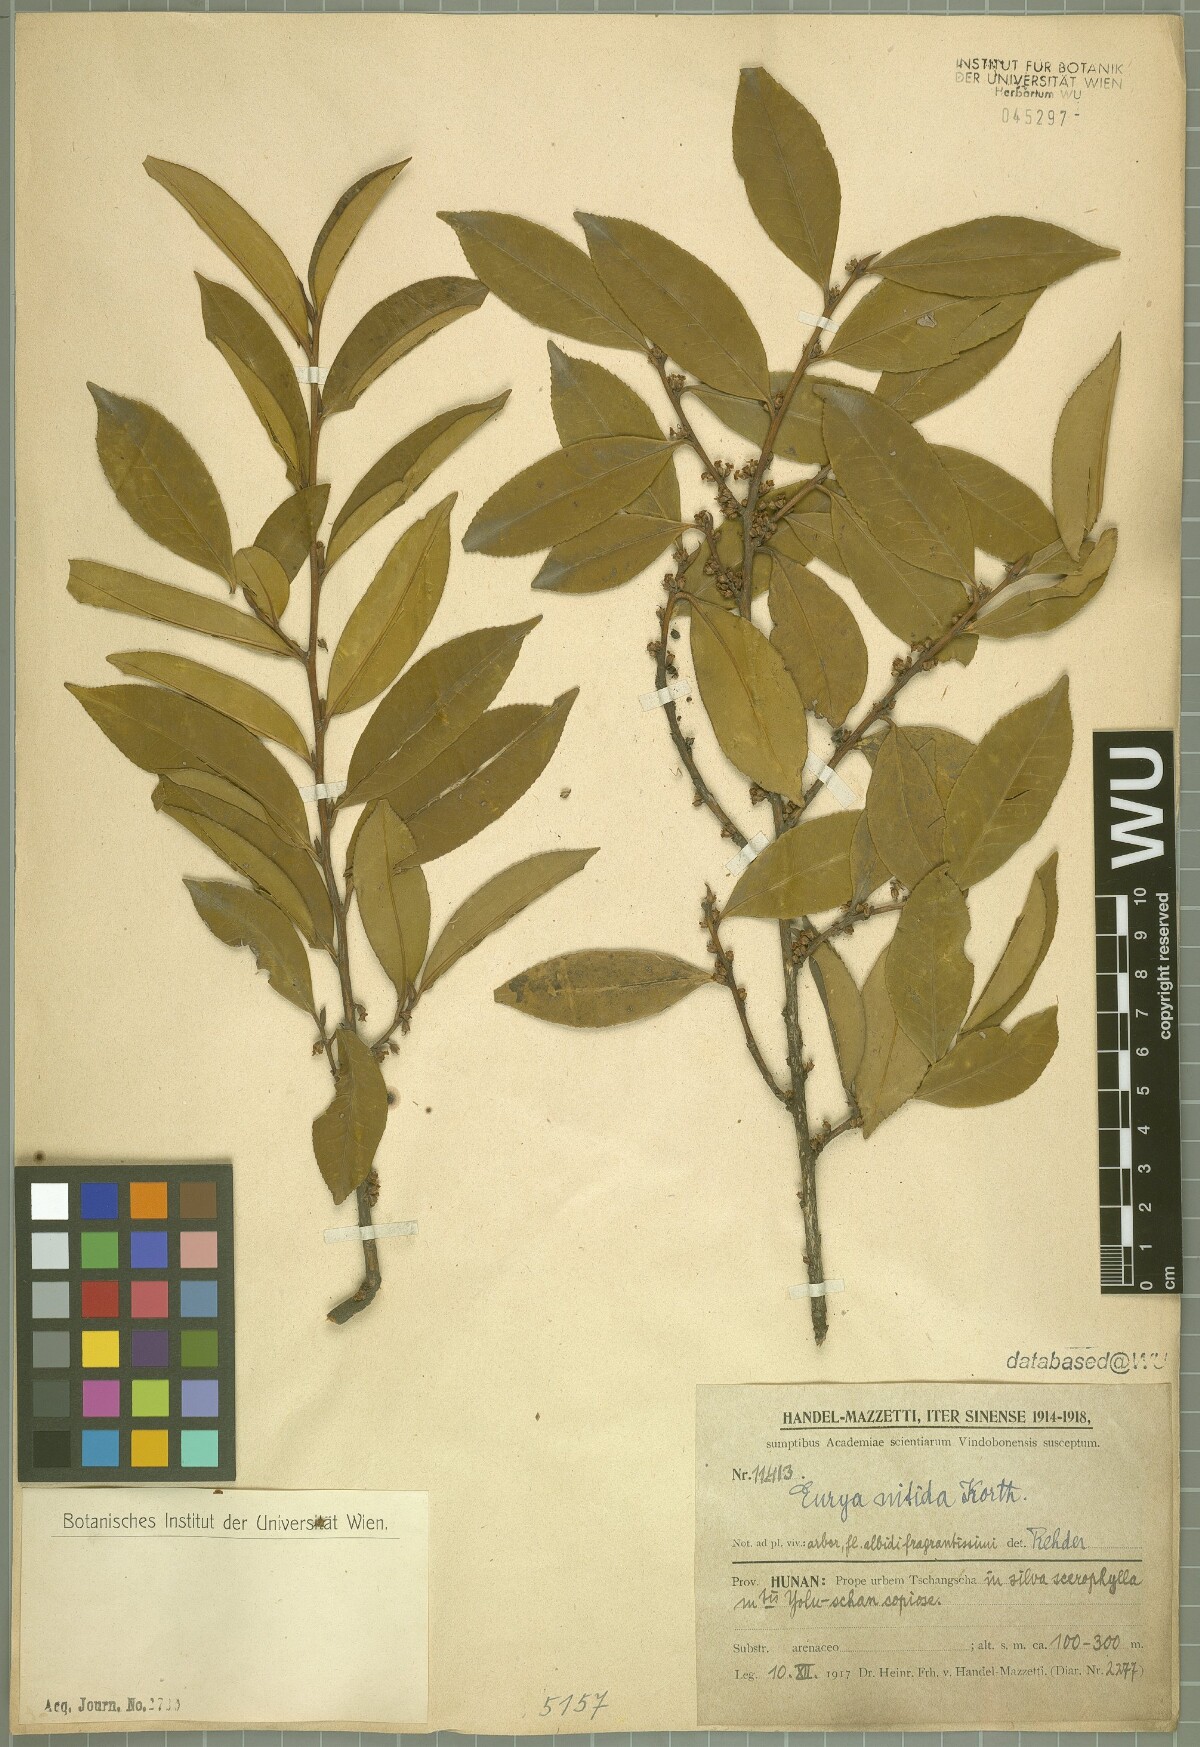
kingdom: Plantae
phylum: Tracheophyta
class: Magnoliopsida
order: Ericales
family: Pentaphylacaceae
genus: Eurya
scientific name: Eurya nitida
